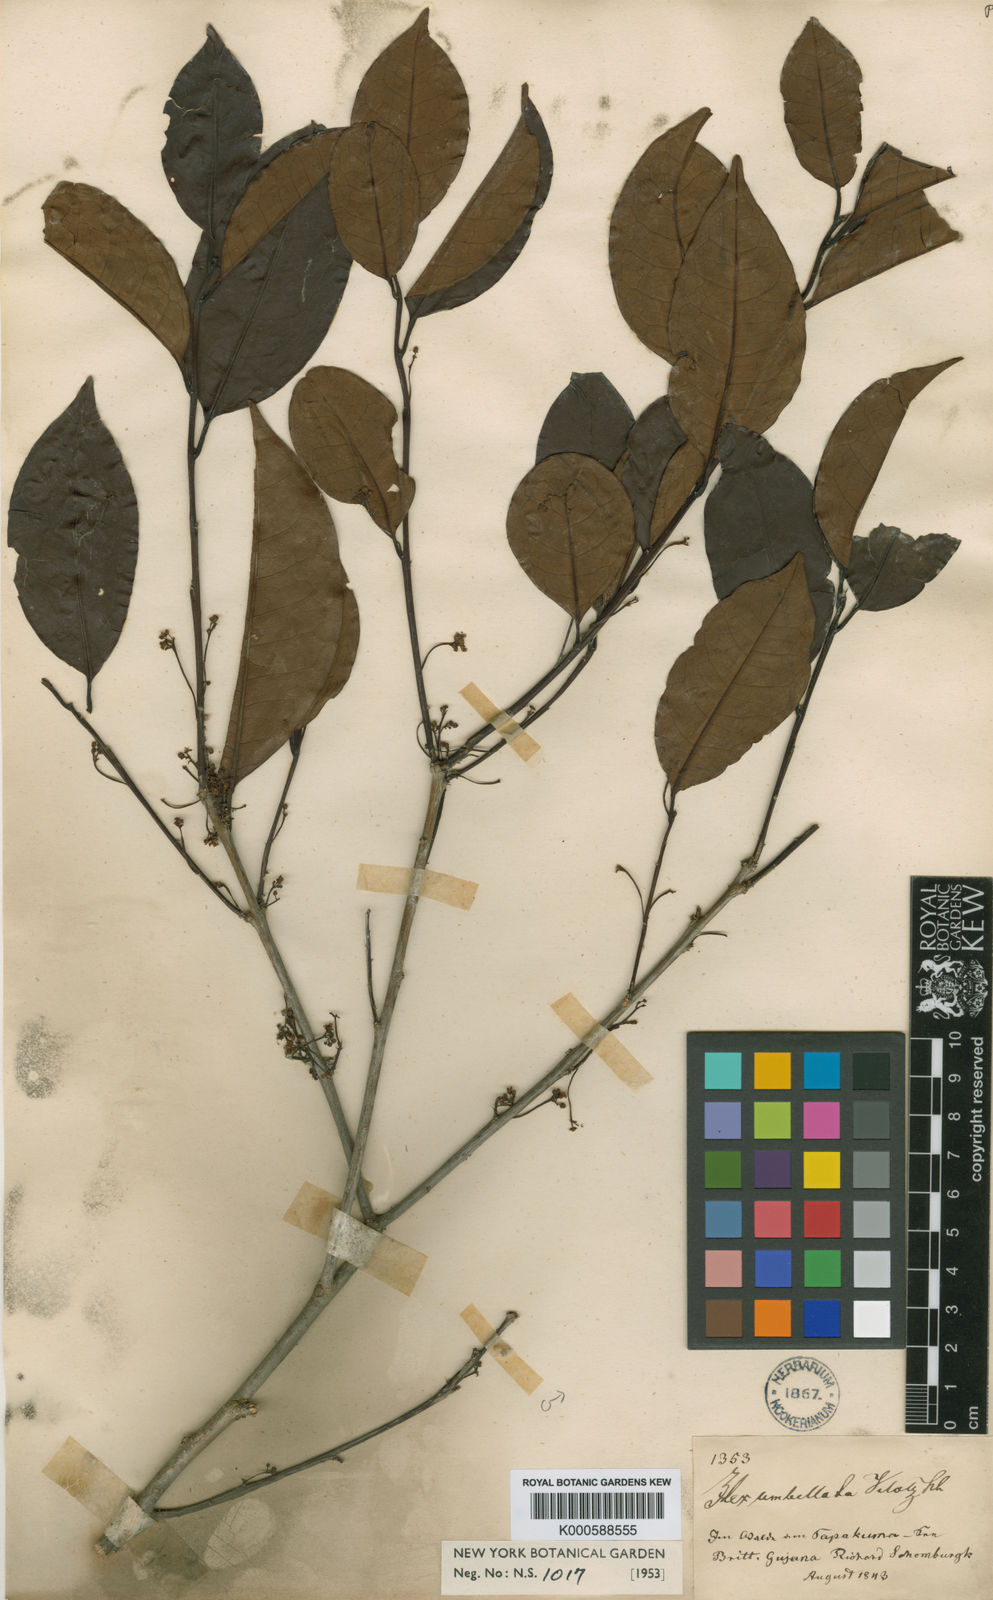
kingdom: Plantae
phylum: Tracheophyta
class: Magnoliopsida
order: Aquifoliales
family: Aquifoliaceae
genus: Ilex
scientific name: Ilex umbellata
